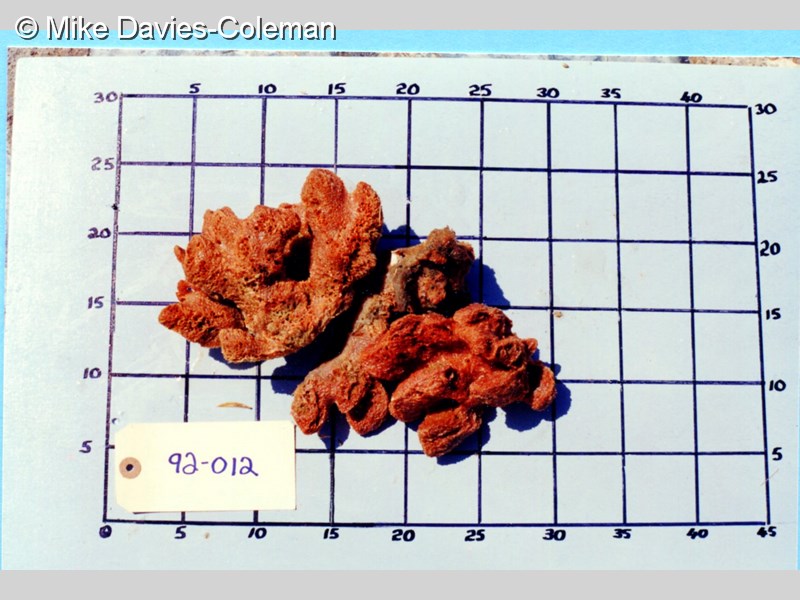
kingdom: Animalia
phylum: Porifera
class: Demospongiae
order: Poecilosclerida
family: Hymedesmiidae
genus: Phorbas
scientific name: Phorbas clathratus
